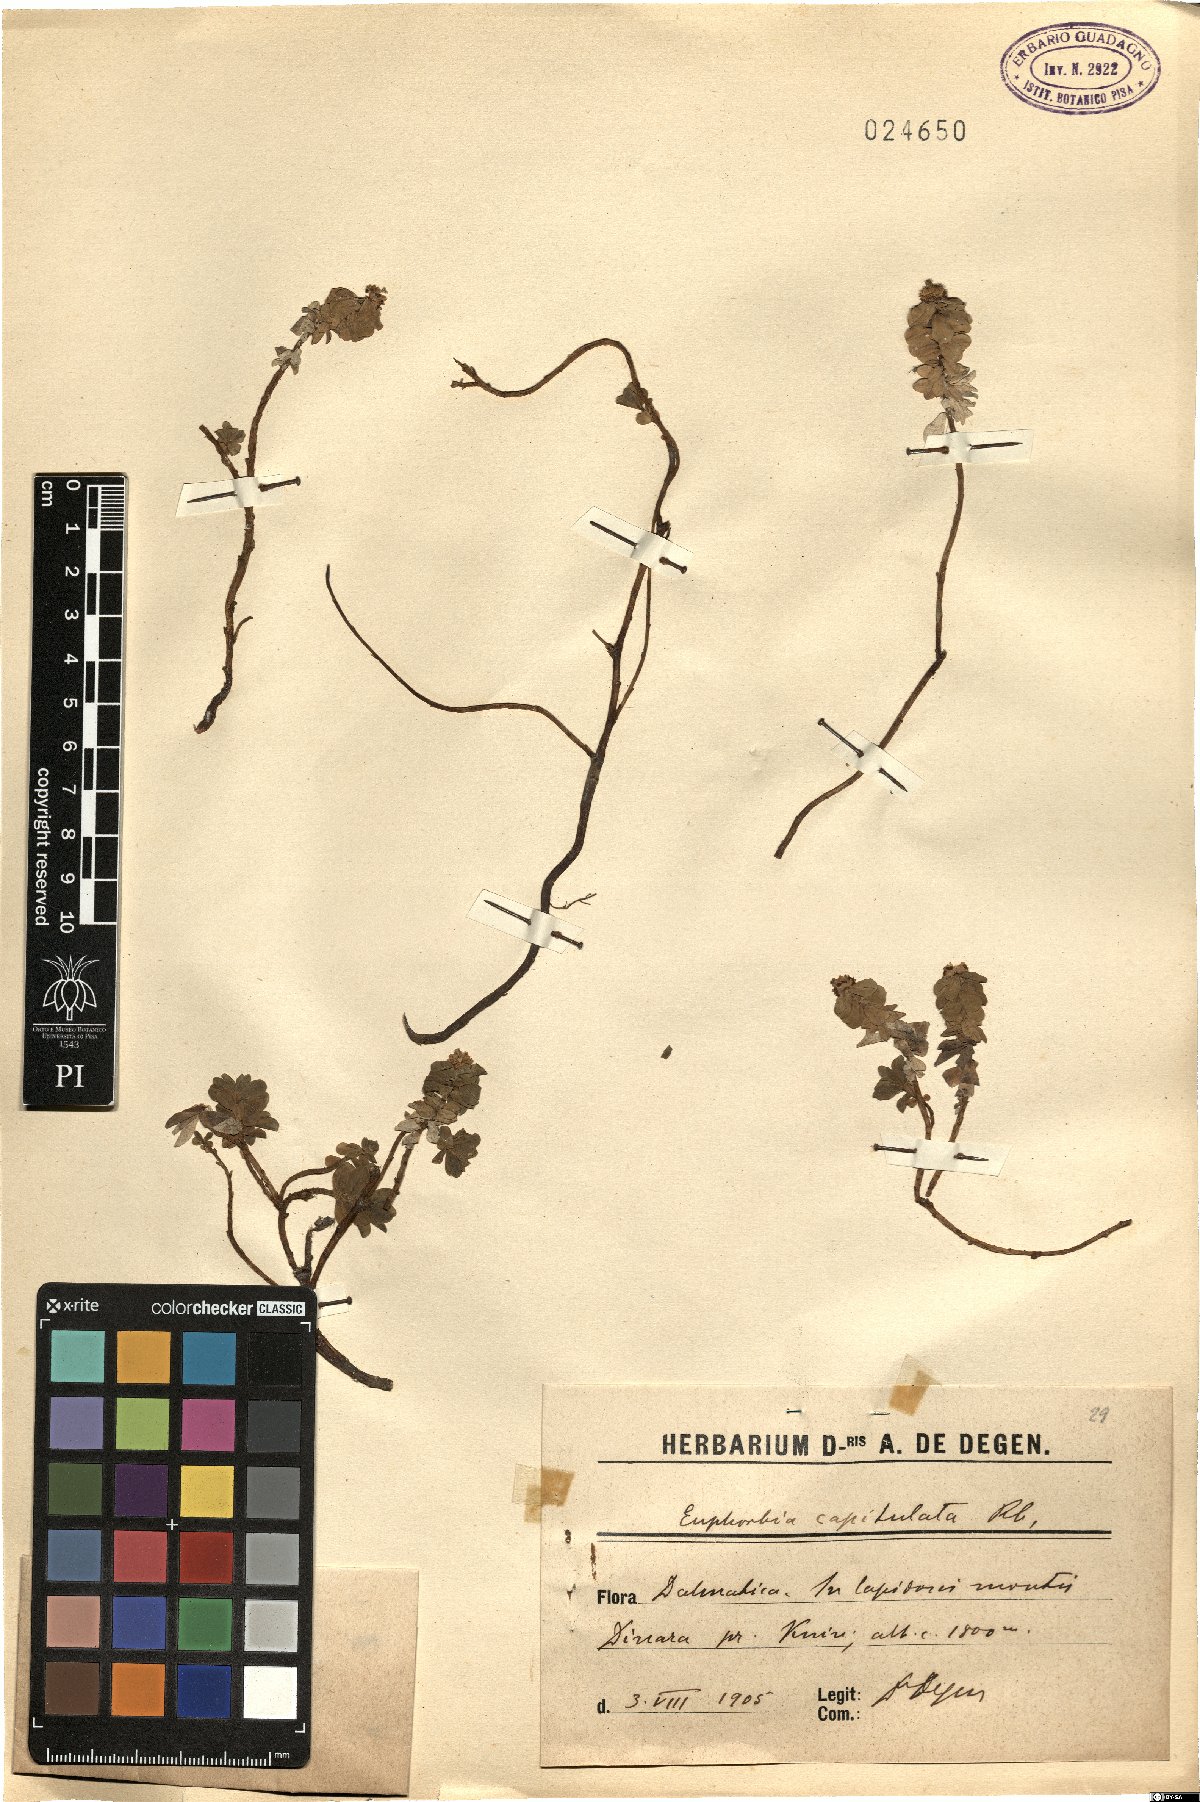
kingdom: Plantae
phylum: Tracheophyta
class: Magnoliopsida
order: Malpighiales
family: Euphorbiaceae
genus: Euphorbia
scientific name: Euphorbia capitulata
